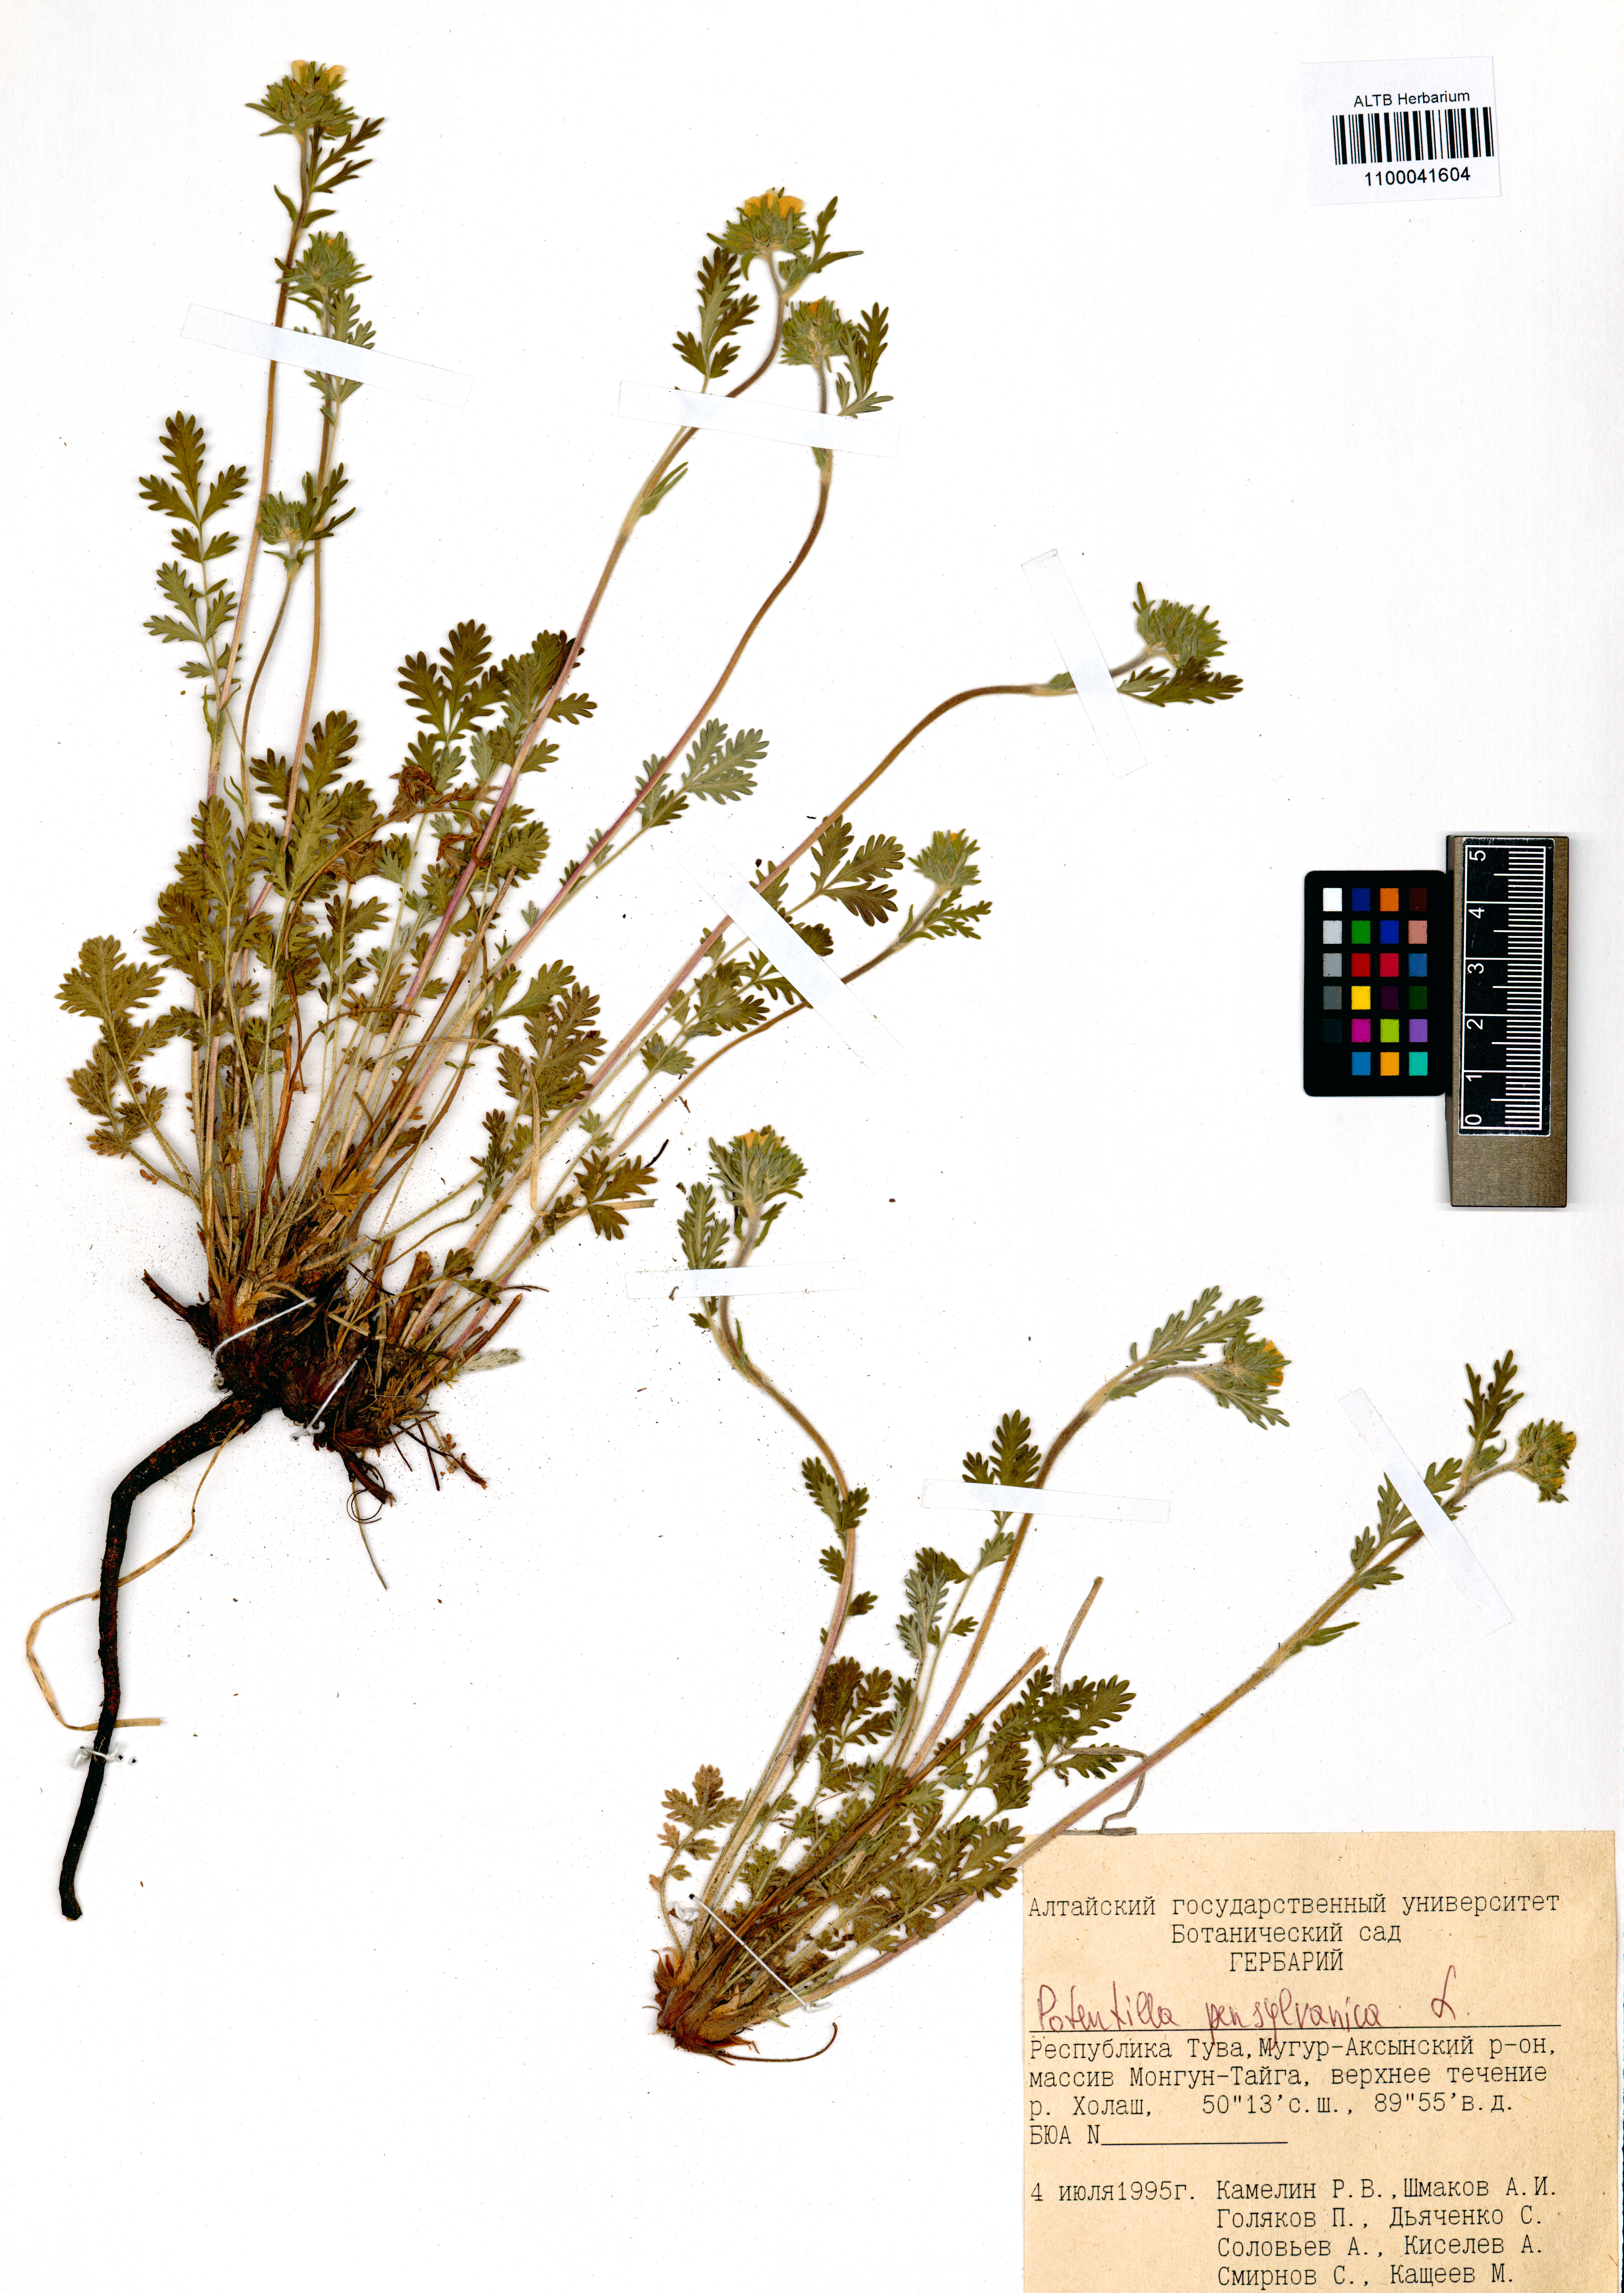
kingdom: Plantae
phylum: Tracheophyta
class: Magnoliopsida
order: Rosales
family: Rosaceae
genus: Potentilla
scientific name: Potentilla pensylvanica
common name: Pennsylvania cinquefoil
